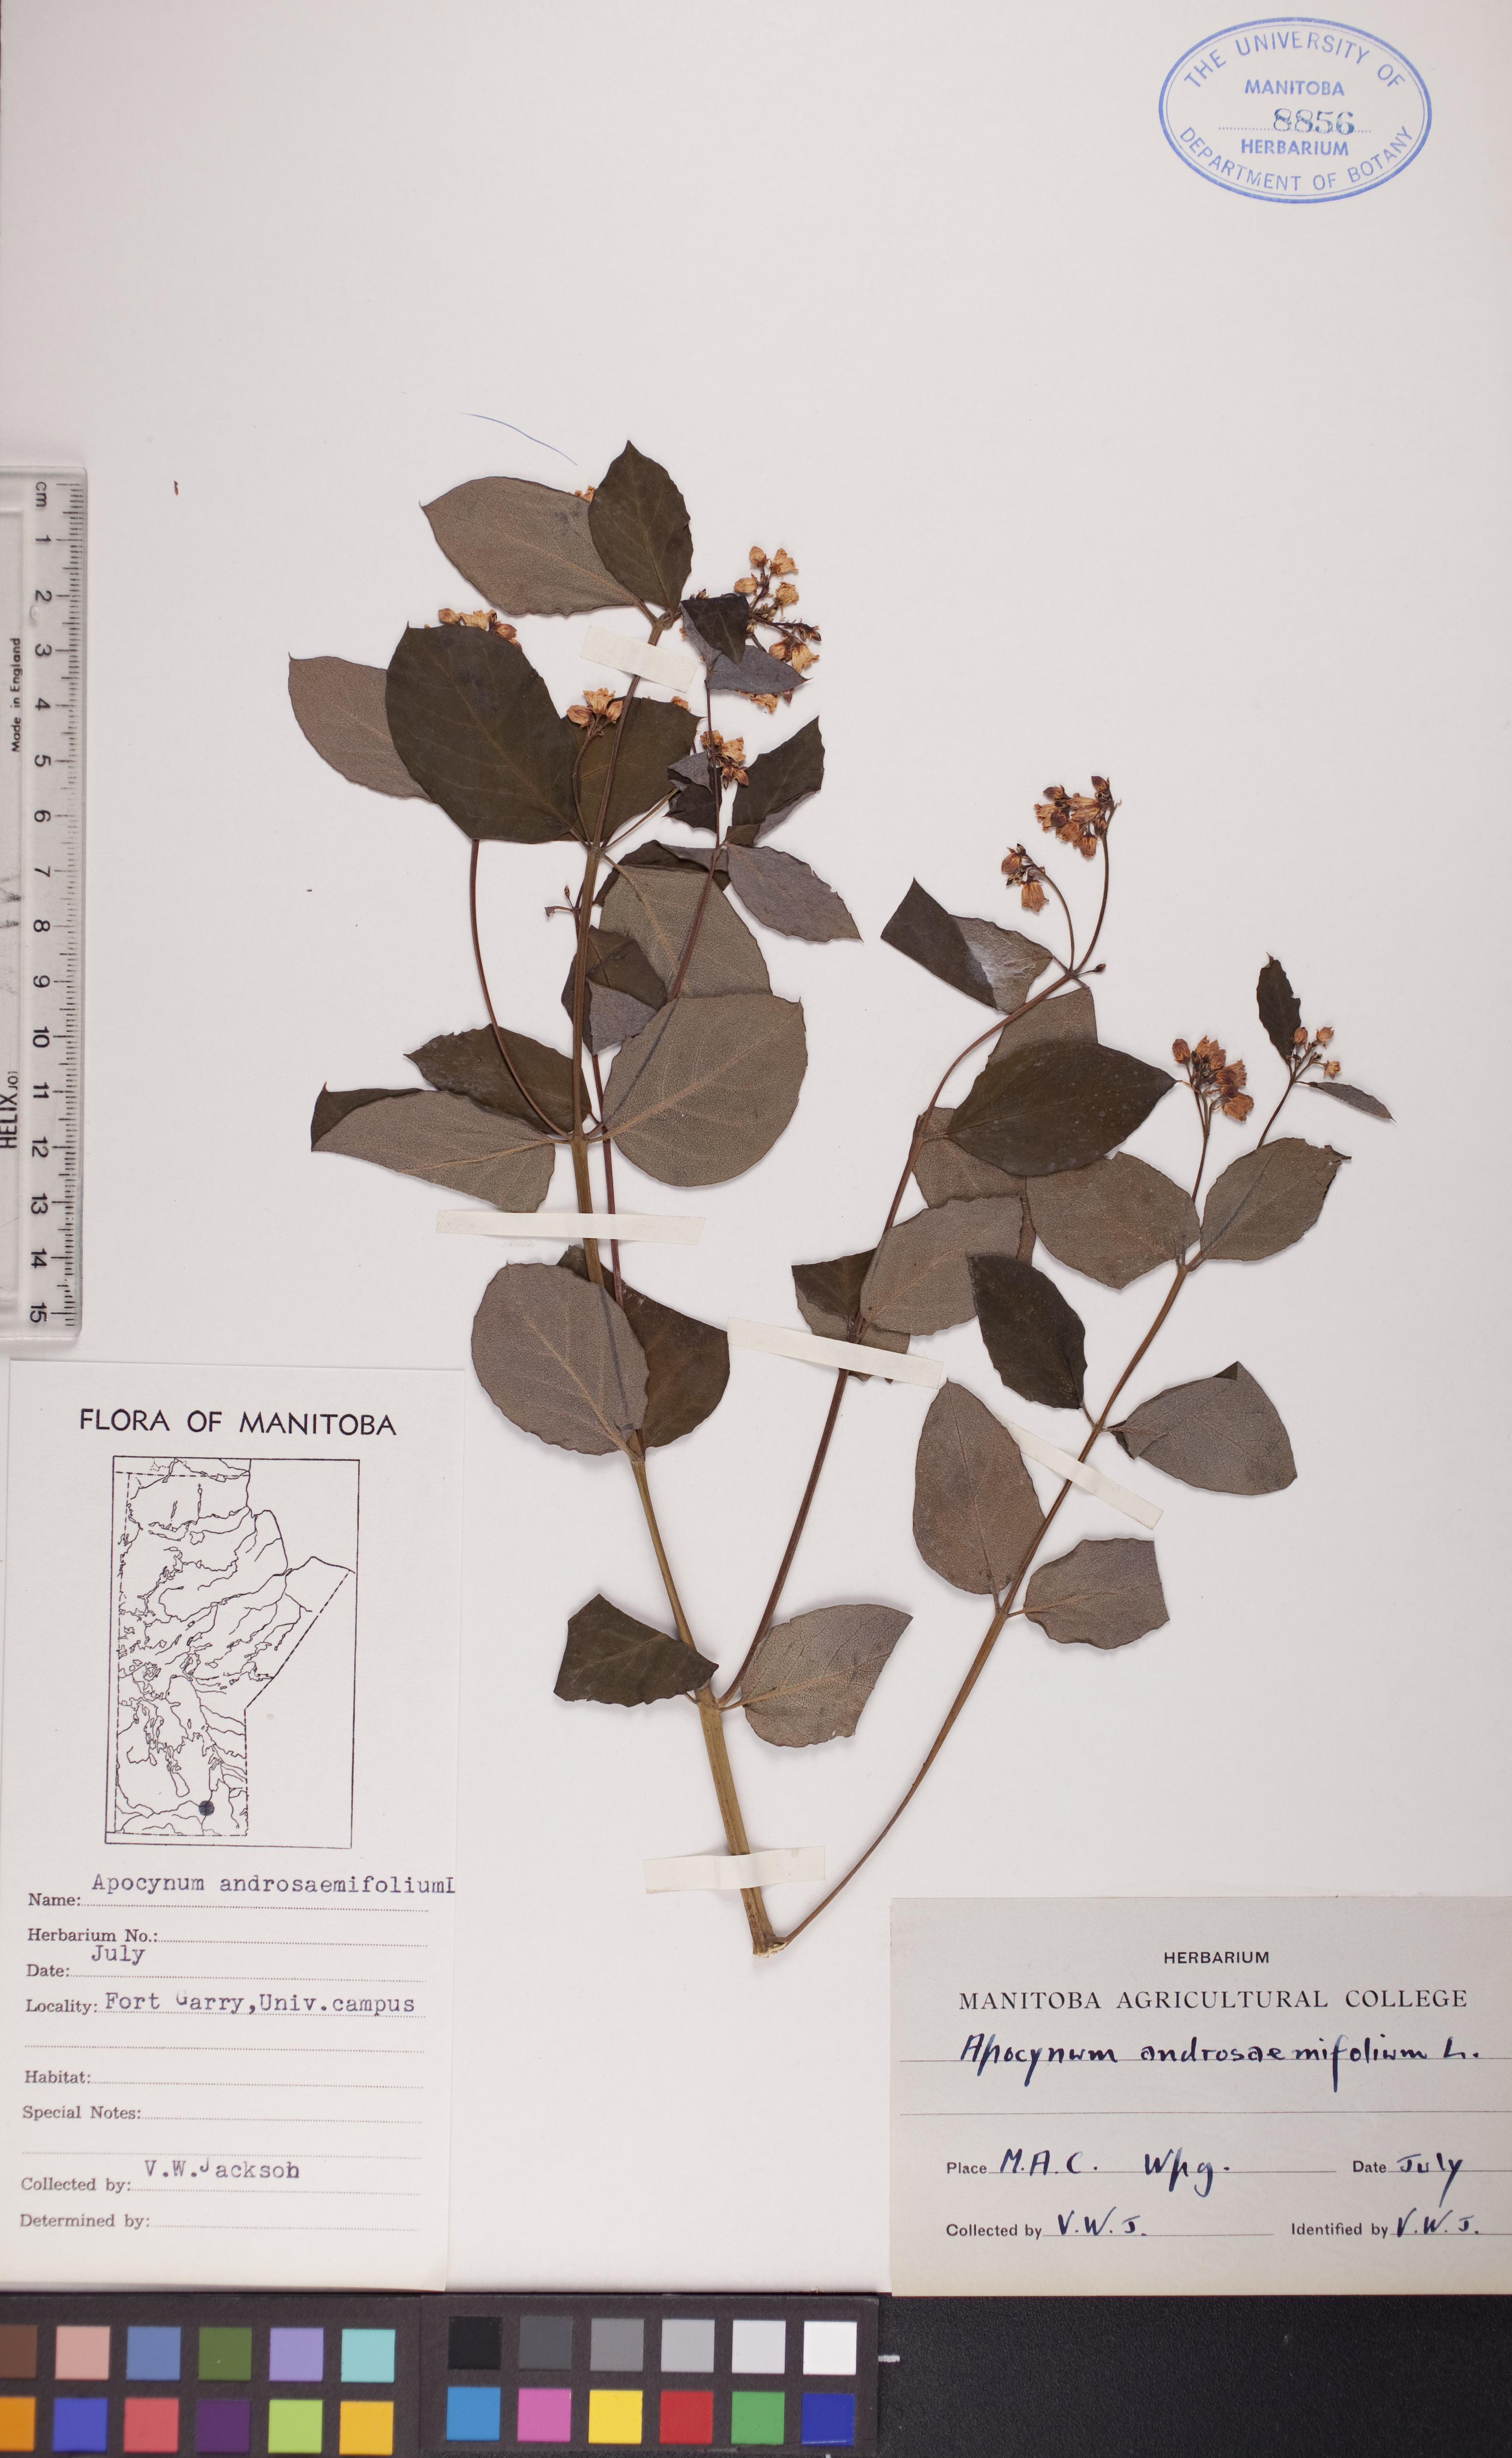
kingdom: Plantae
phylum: Tracheophyta
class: Magnoliopsida
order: Gentianales
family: Apocynaceae
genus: Apocynum
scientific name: Apocynum androsaemifolium
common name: Spreading dogbane
